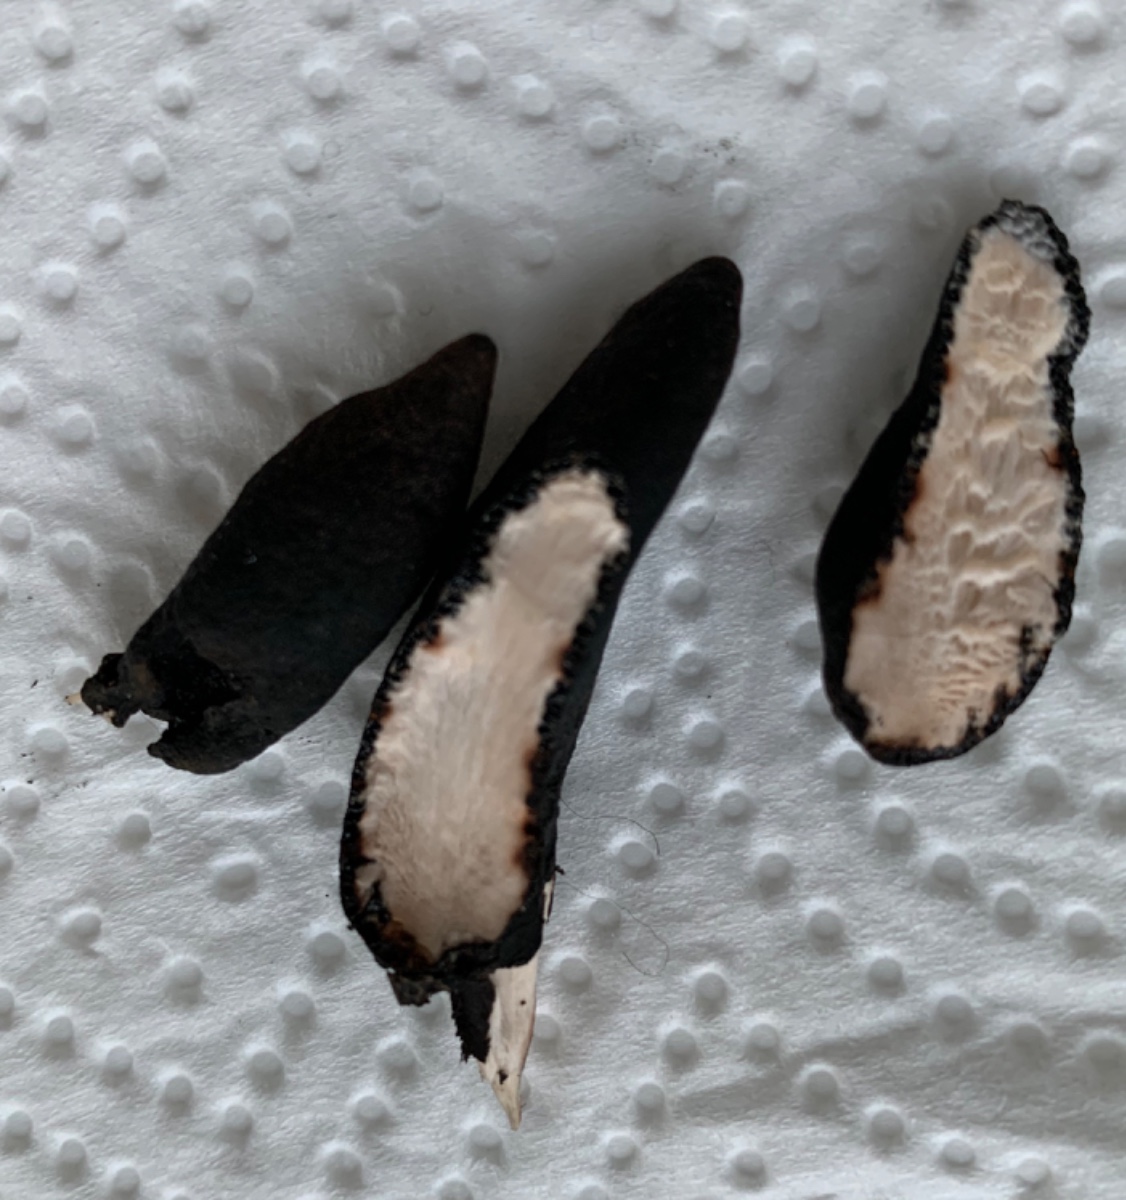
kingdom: Fungi
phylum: Ascomycota
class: Sordariomycetes
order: Xylariales
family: Xylariaceae
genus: Xylaria
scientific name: Xylaria polymorpha
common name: kølle-stødsvamp
